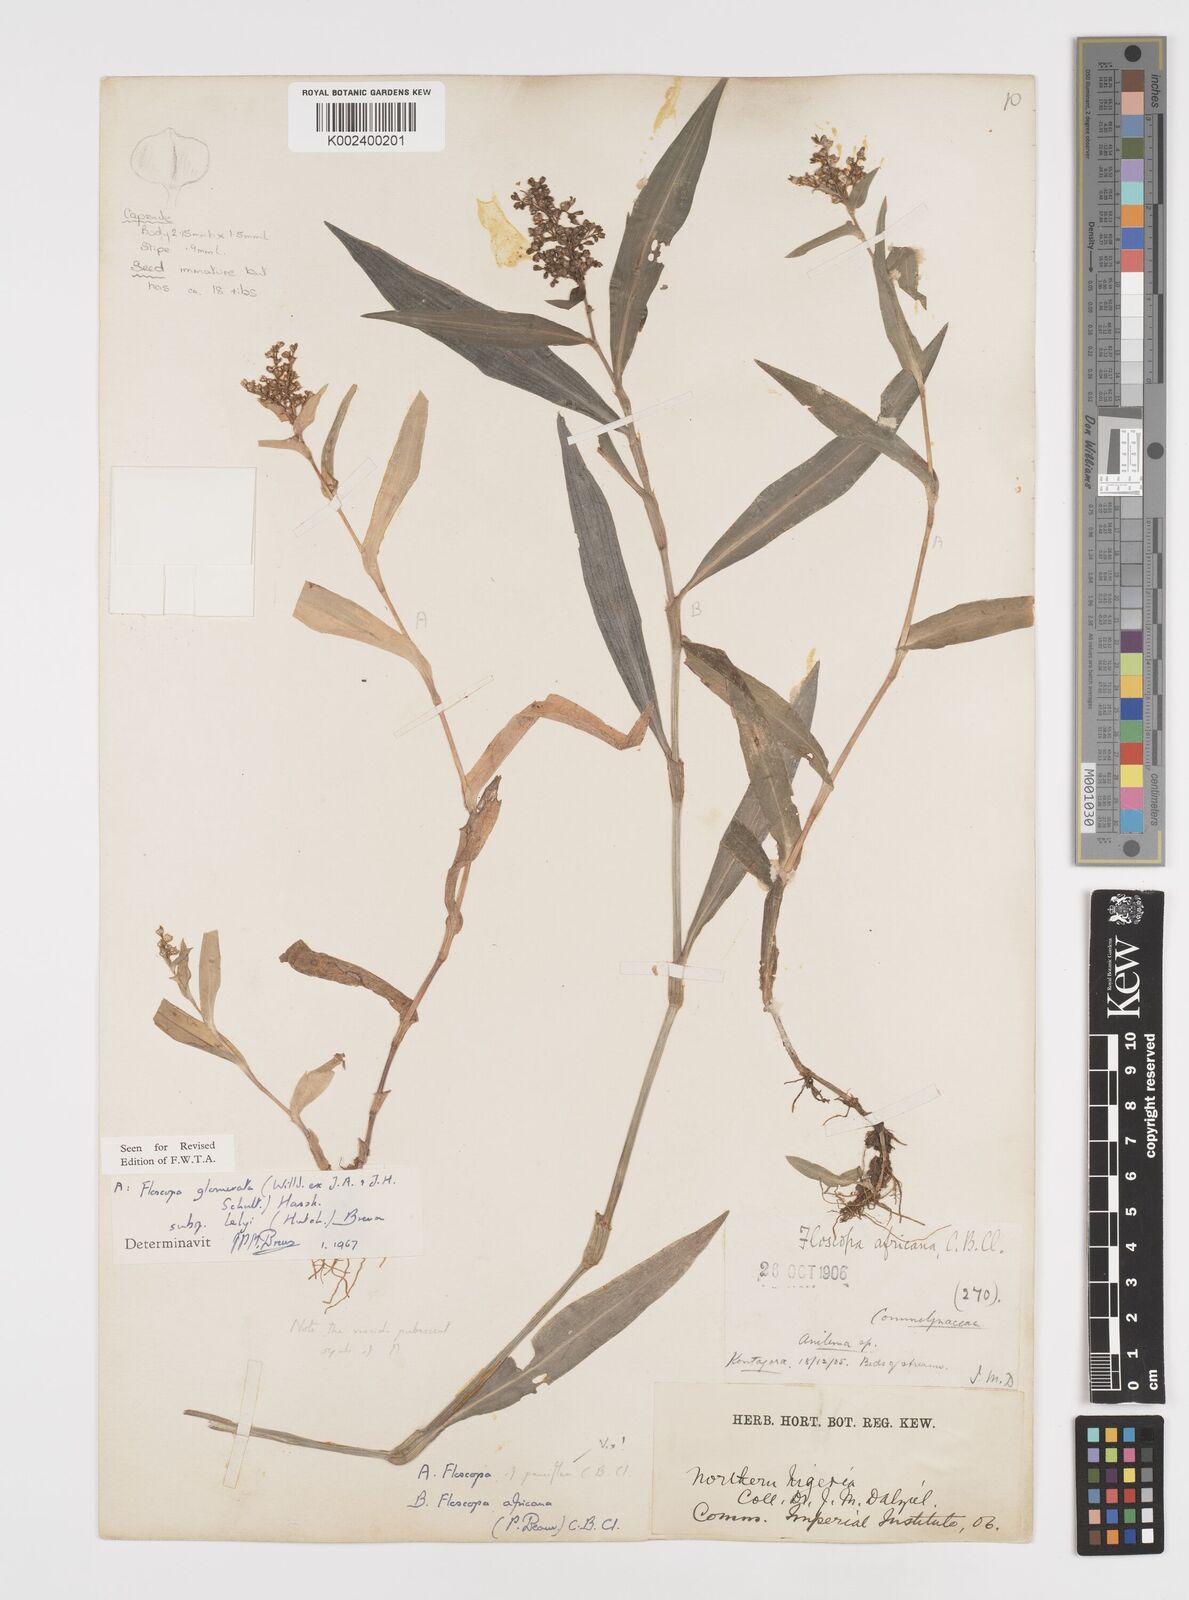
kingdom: Plantae
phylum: Tracheophyta
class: Liliopsida
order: Commelinales
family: Commelinaceae
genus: Floscopa
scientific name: Floscopa glomerata
